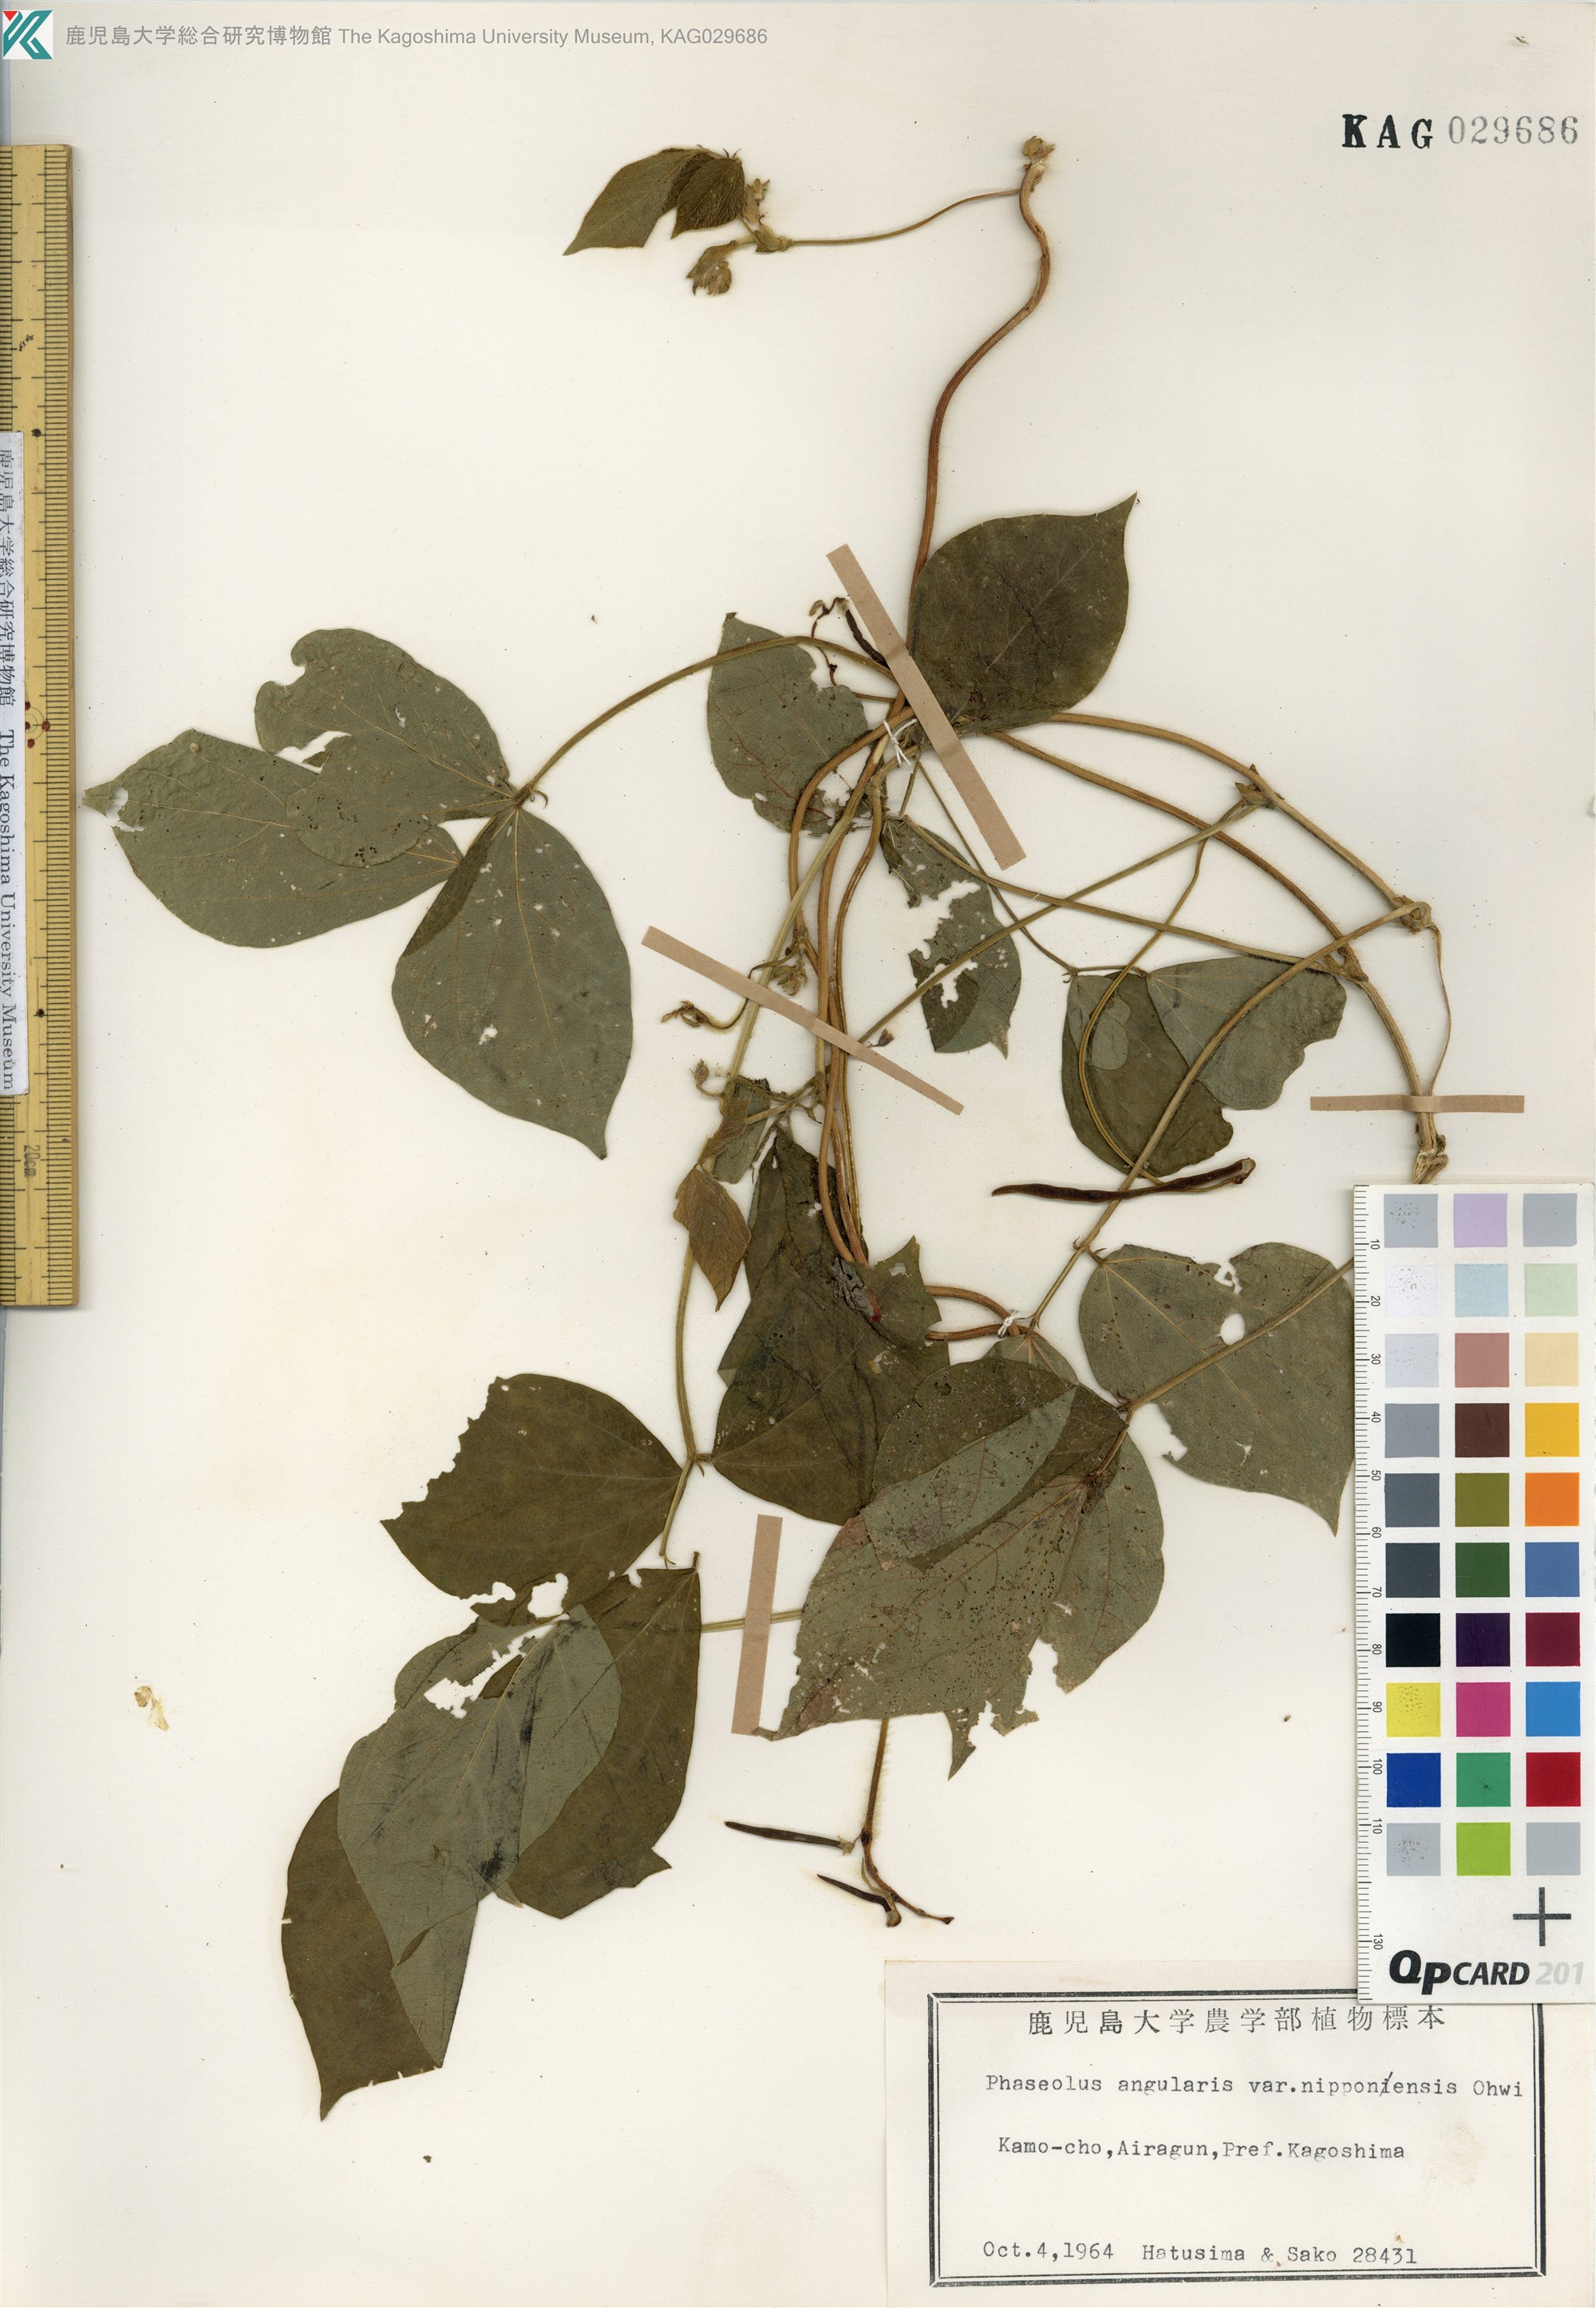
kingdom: Plantae
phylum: Tracheophyta
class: Magnoliopsida
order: Fabales
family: Fabaceae
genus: Vigna
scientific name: Vigna angularis
